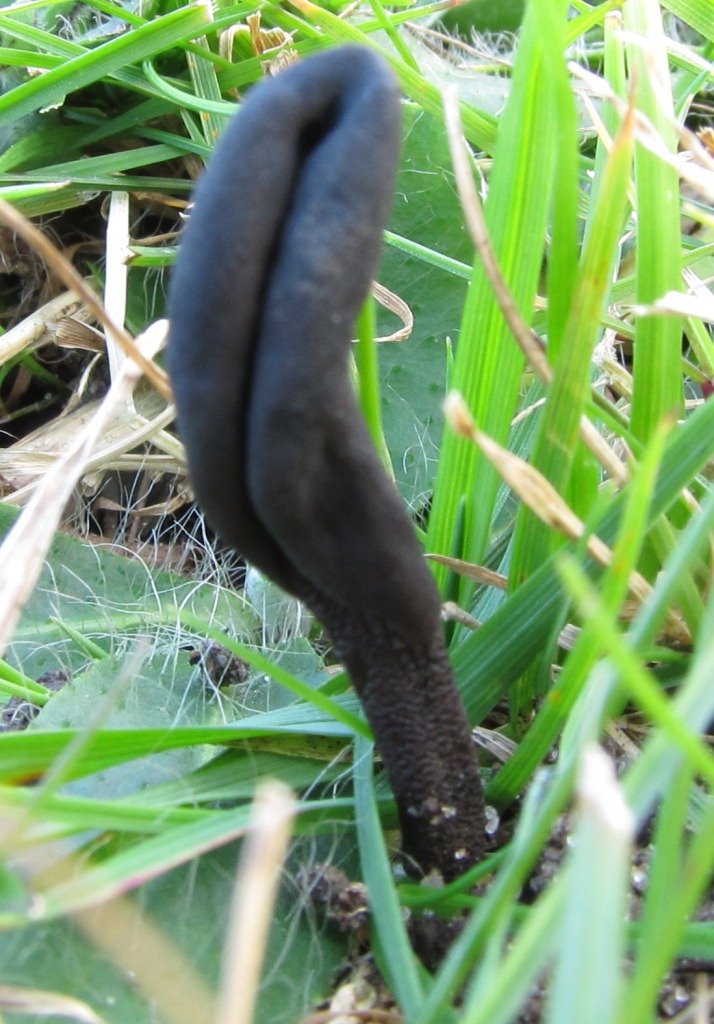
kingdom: Fungi
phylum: Ascomycota
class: Geoglossomycetes
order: Geoglossales
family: Geoglossaceae
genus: Geoglossum
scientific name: Geoglossum fallax
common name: småskællet jordtunge
